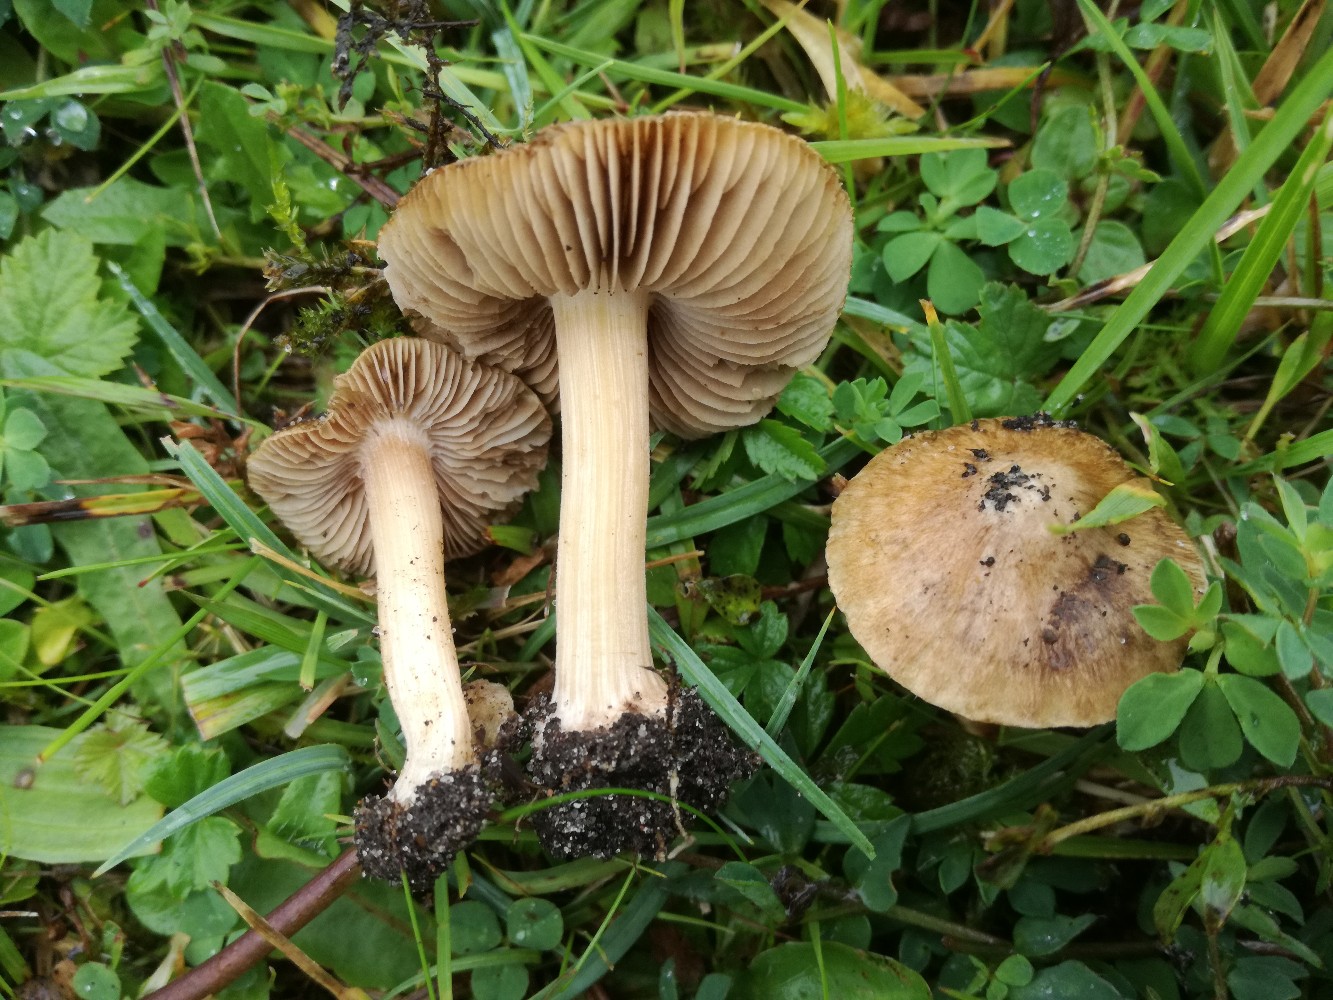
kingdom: Fungi
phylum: Basidiomycota
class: Agaricomycetes
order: Agaricales
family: Inocybaceae
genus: Inocybe
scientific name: Inocybe dunensis
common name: Dune fibrecap
